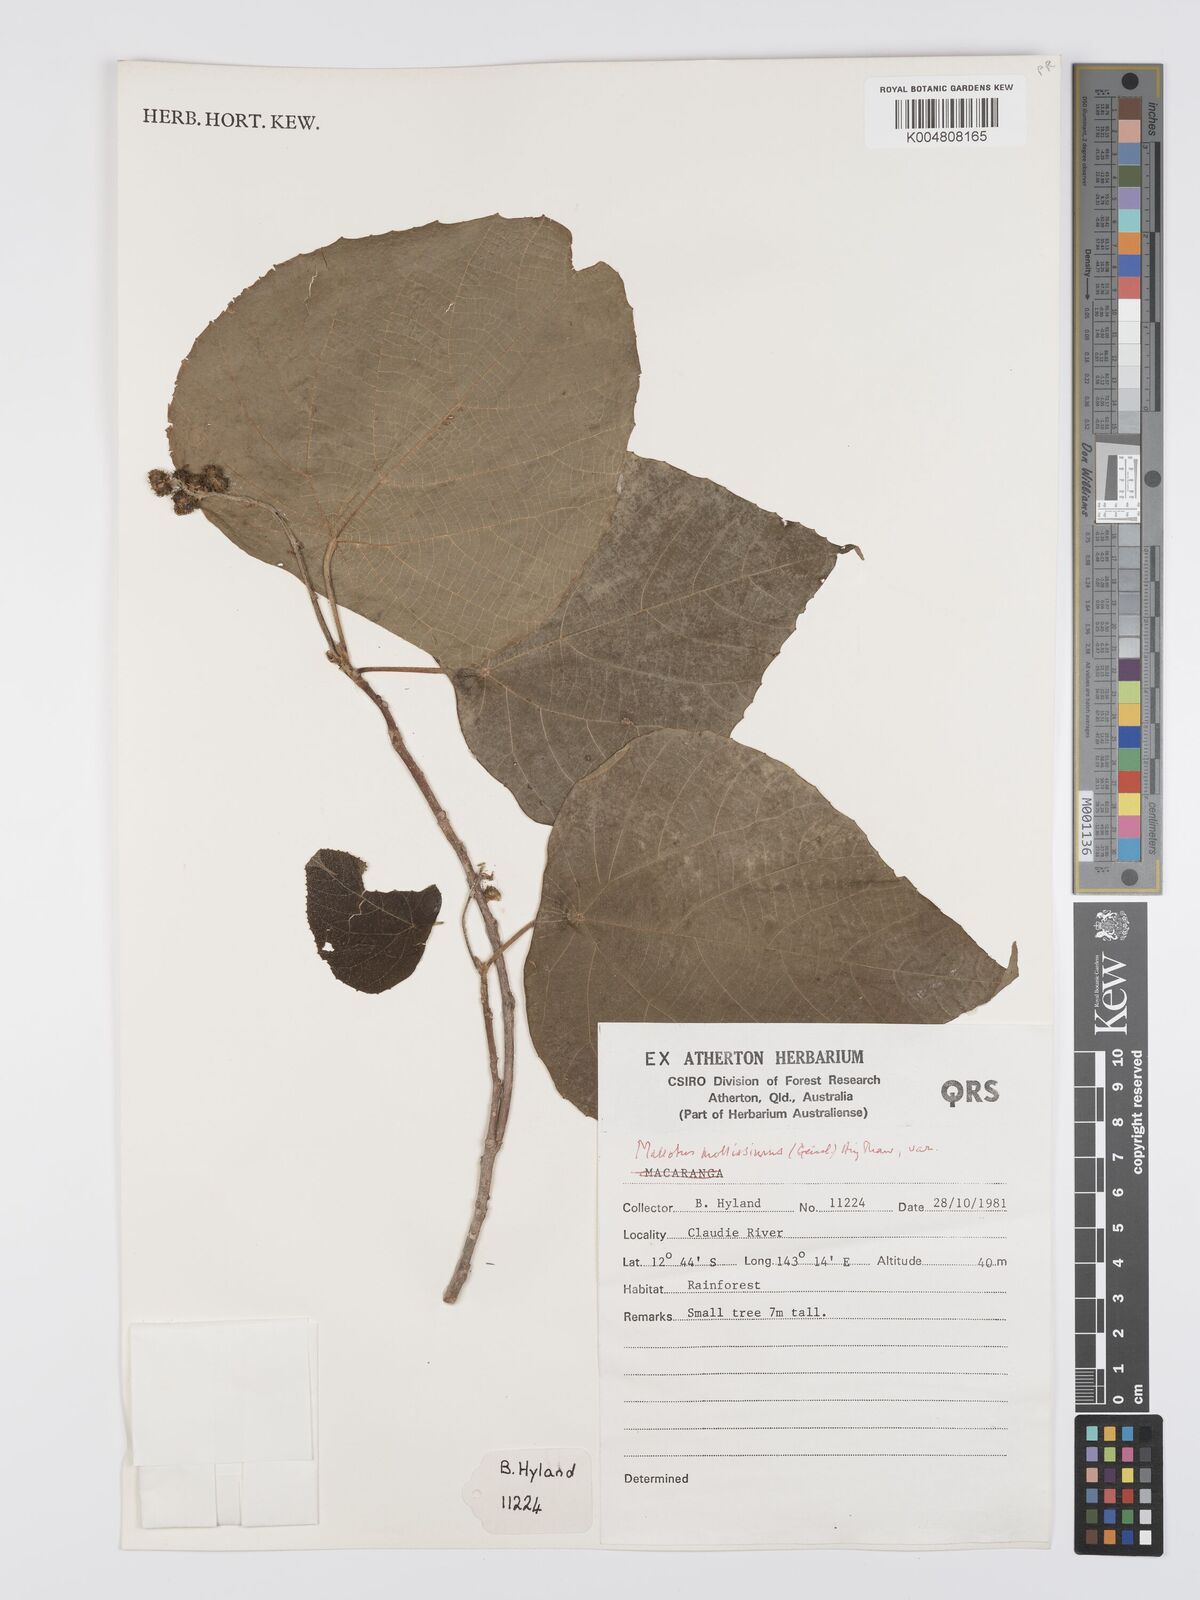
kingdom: Plantae
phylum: Tracheophyta
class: Magnoliopsida
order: Malpighiales
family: Euphorbiaceae
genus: Mallotus
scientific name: Mallotus mollissimus
